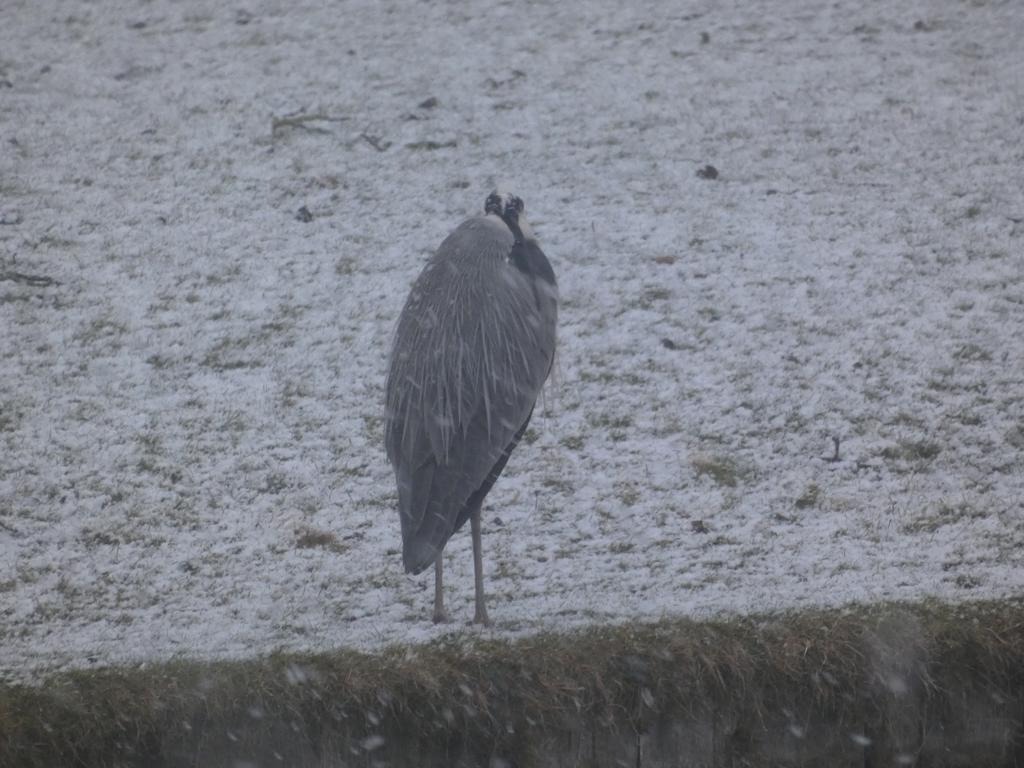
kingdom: Animalia
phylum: Chordata
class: Aves
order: Pelecaniformes
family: Ardeidae
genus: Ardea
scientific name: Ardea cinerea
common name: Fiskehejre
